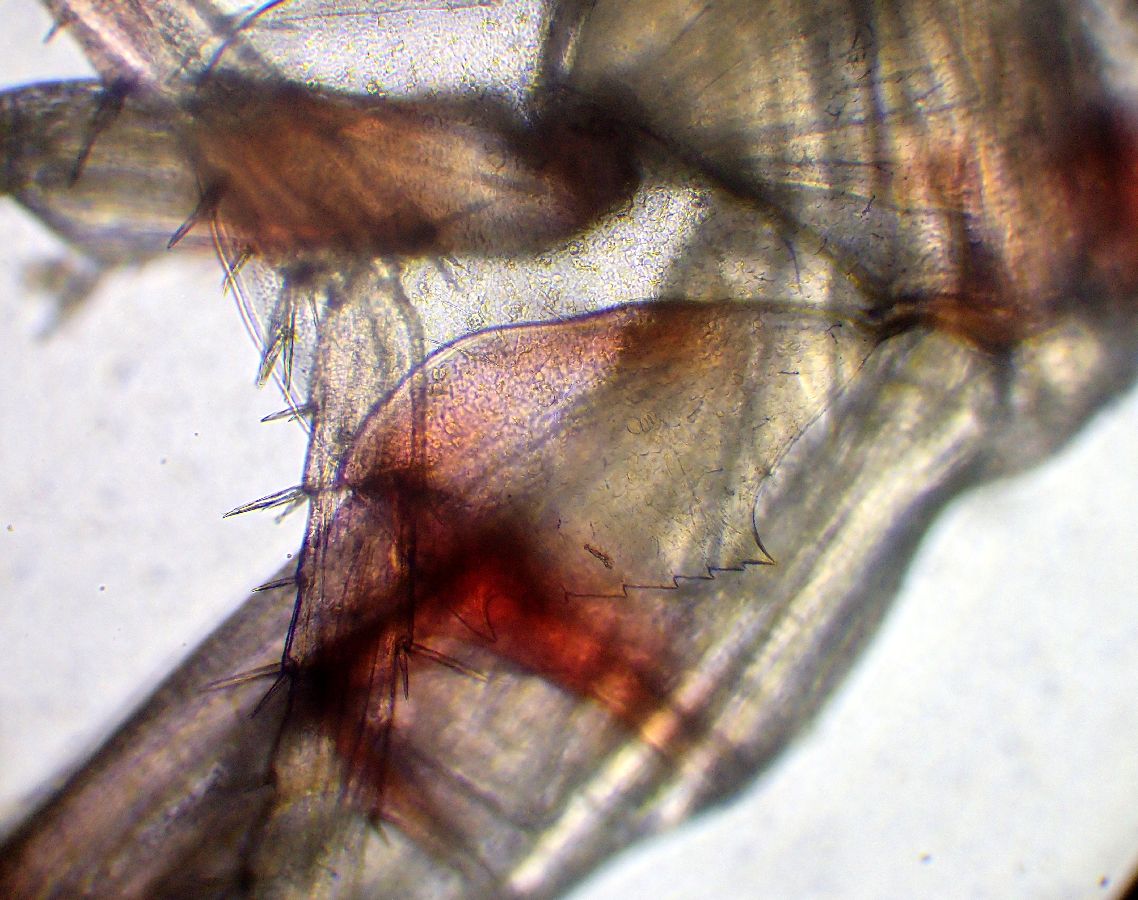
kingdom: Animalia
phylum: Arthropoda
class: Malacostraca
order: Amphipoda
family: Calliopiidae
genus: Halirages
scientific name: Halirages fulvocinctus
